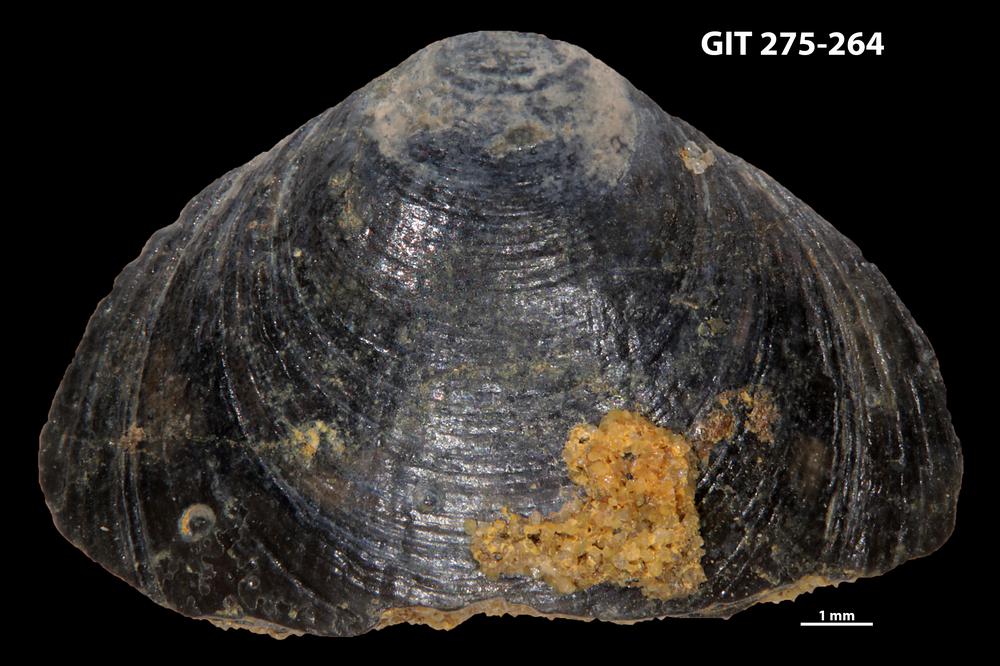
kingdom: Animalia
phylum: Porifera
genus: Ungula
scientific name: Ungula ingricus
